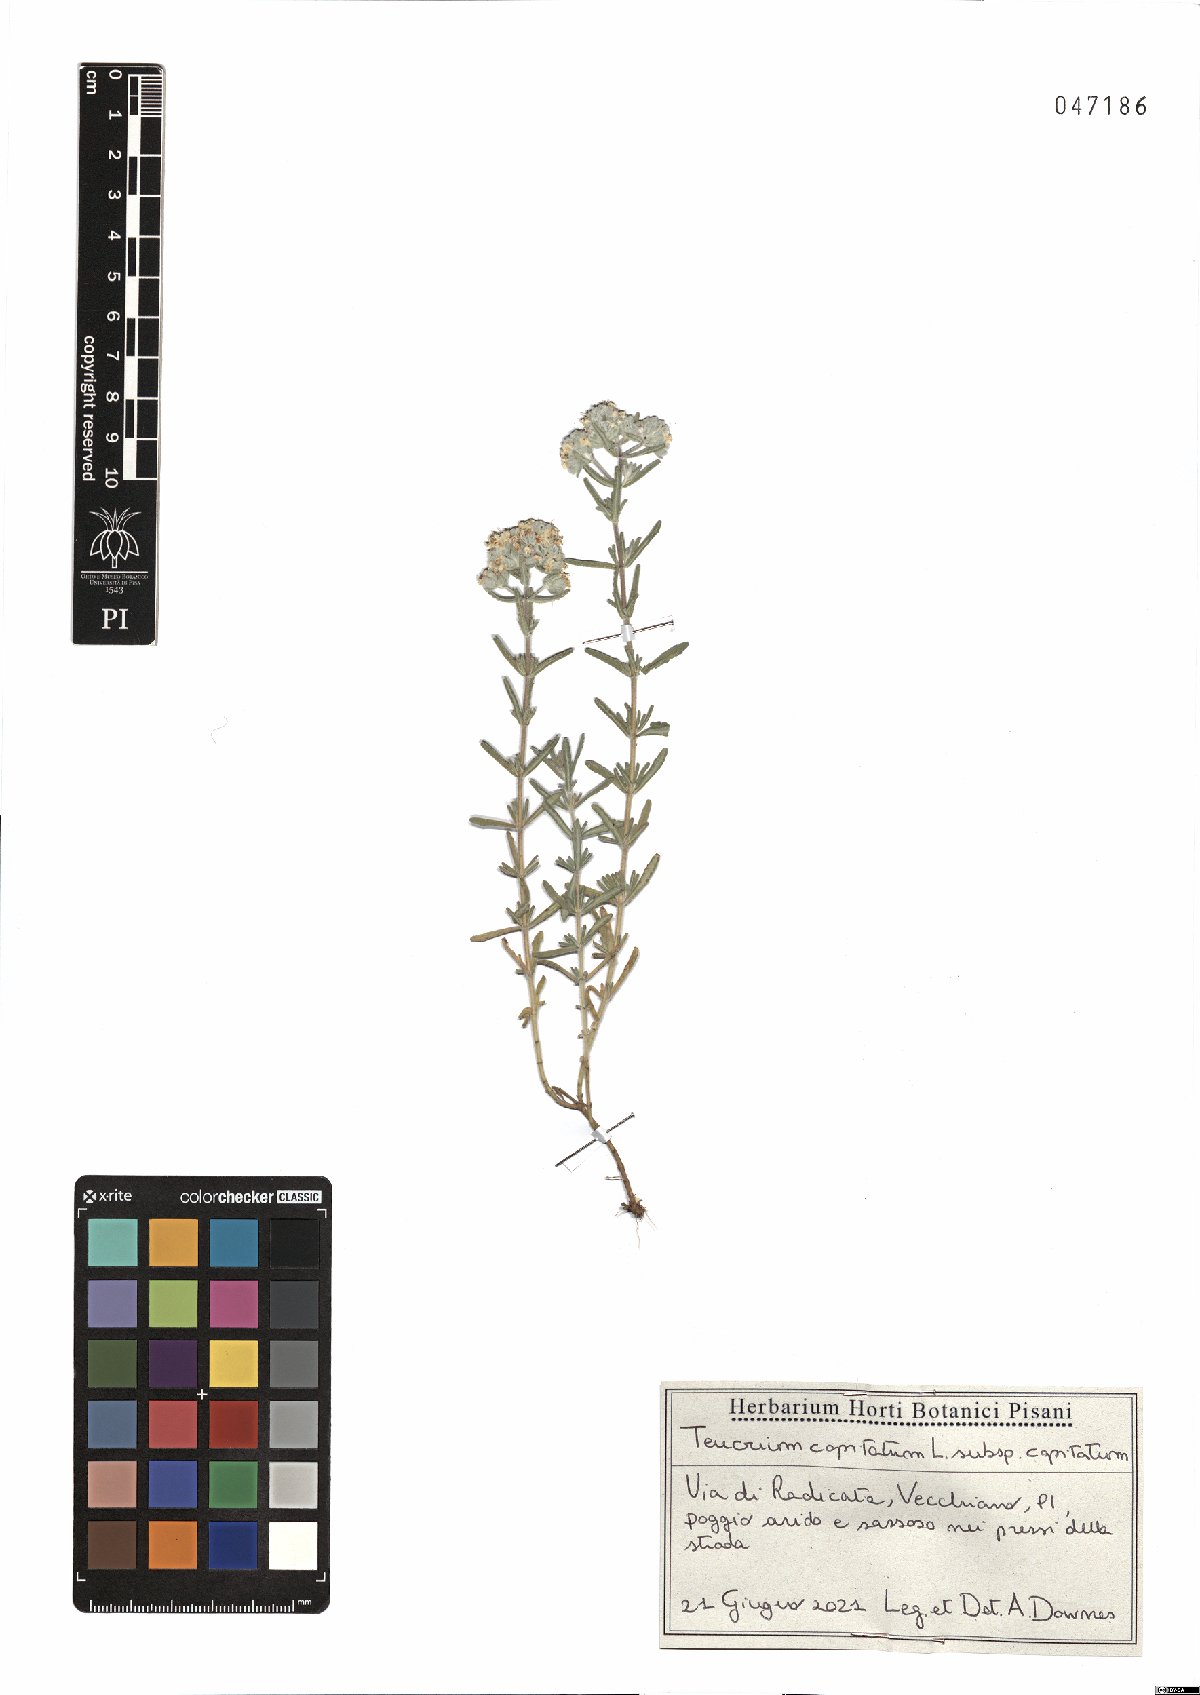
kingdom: Plantae
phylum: Tracheophyta
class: Magnoliopsida
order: Lamiales
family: Lamiaceae
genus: Teucrium
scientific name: Teucrium capitatum
